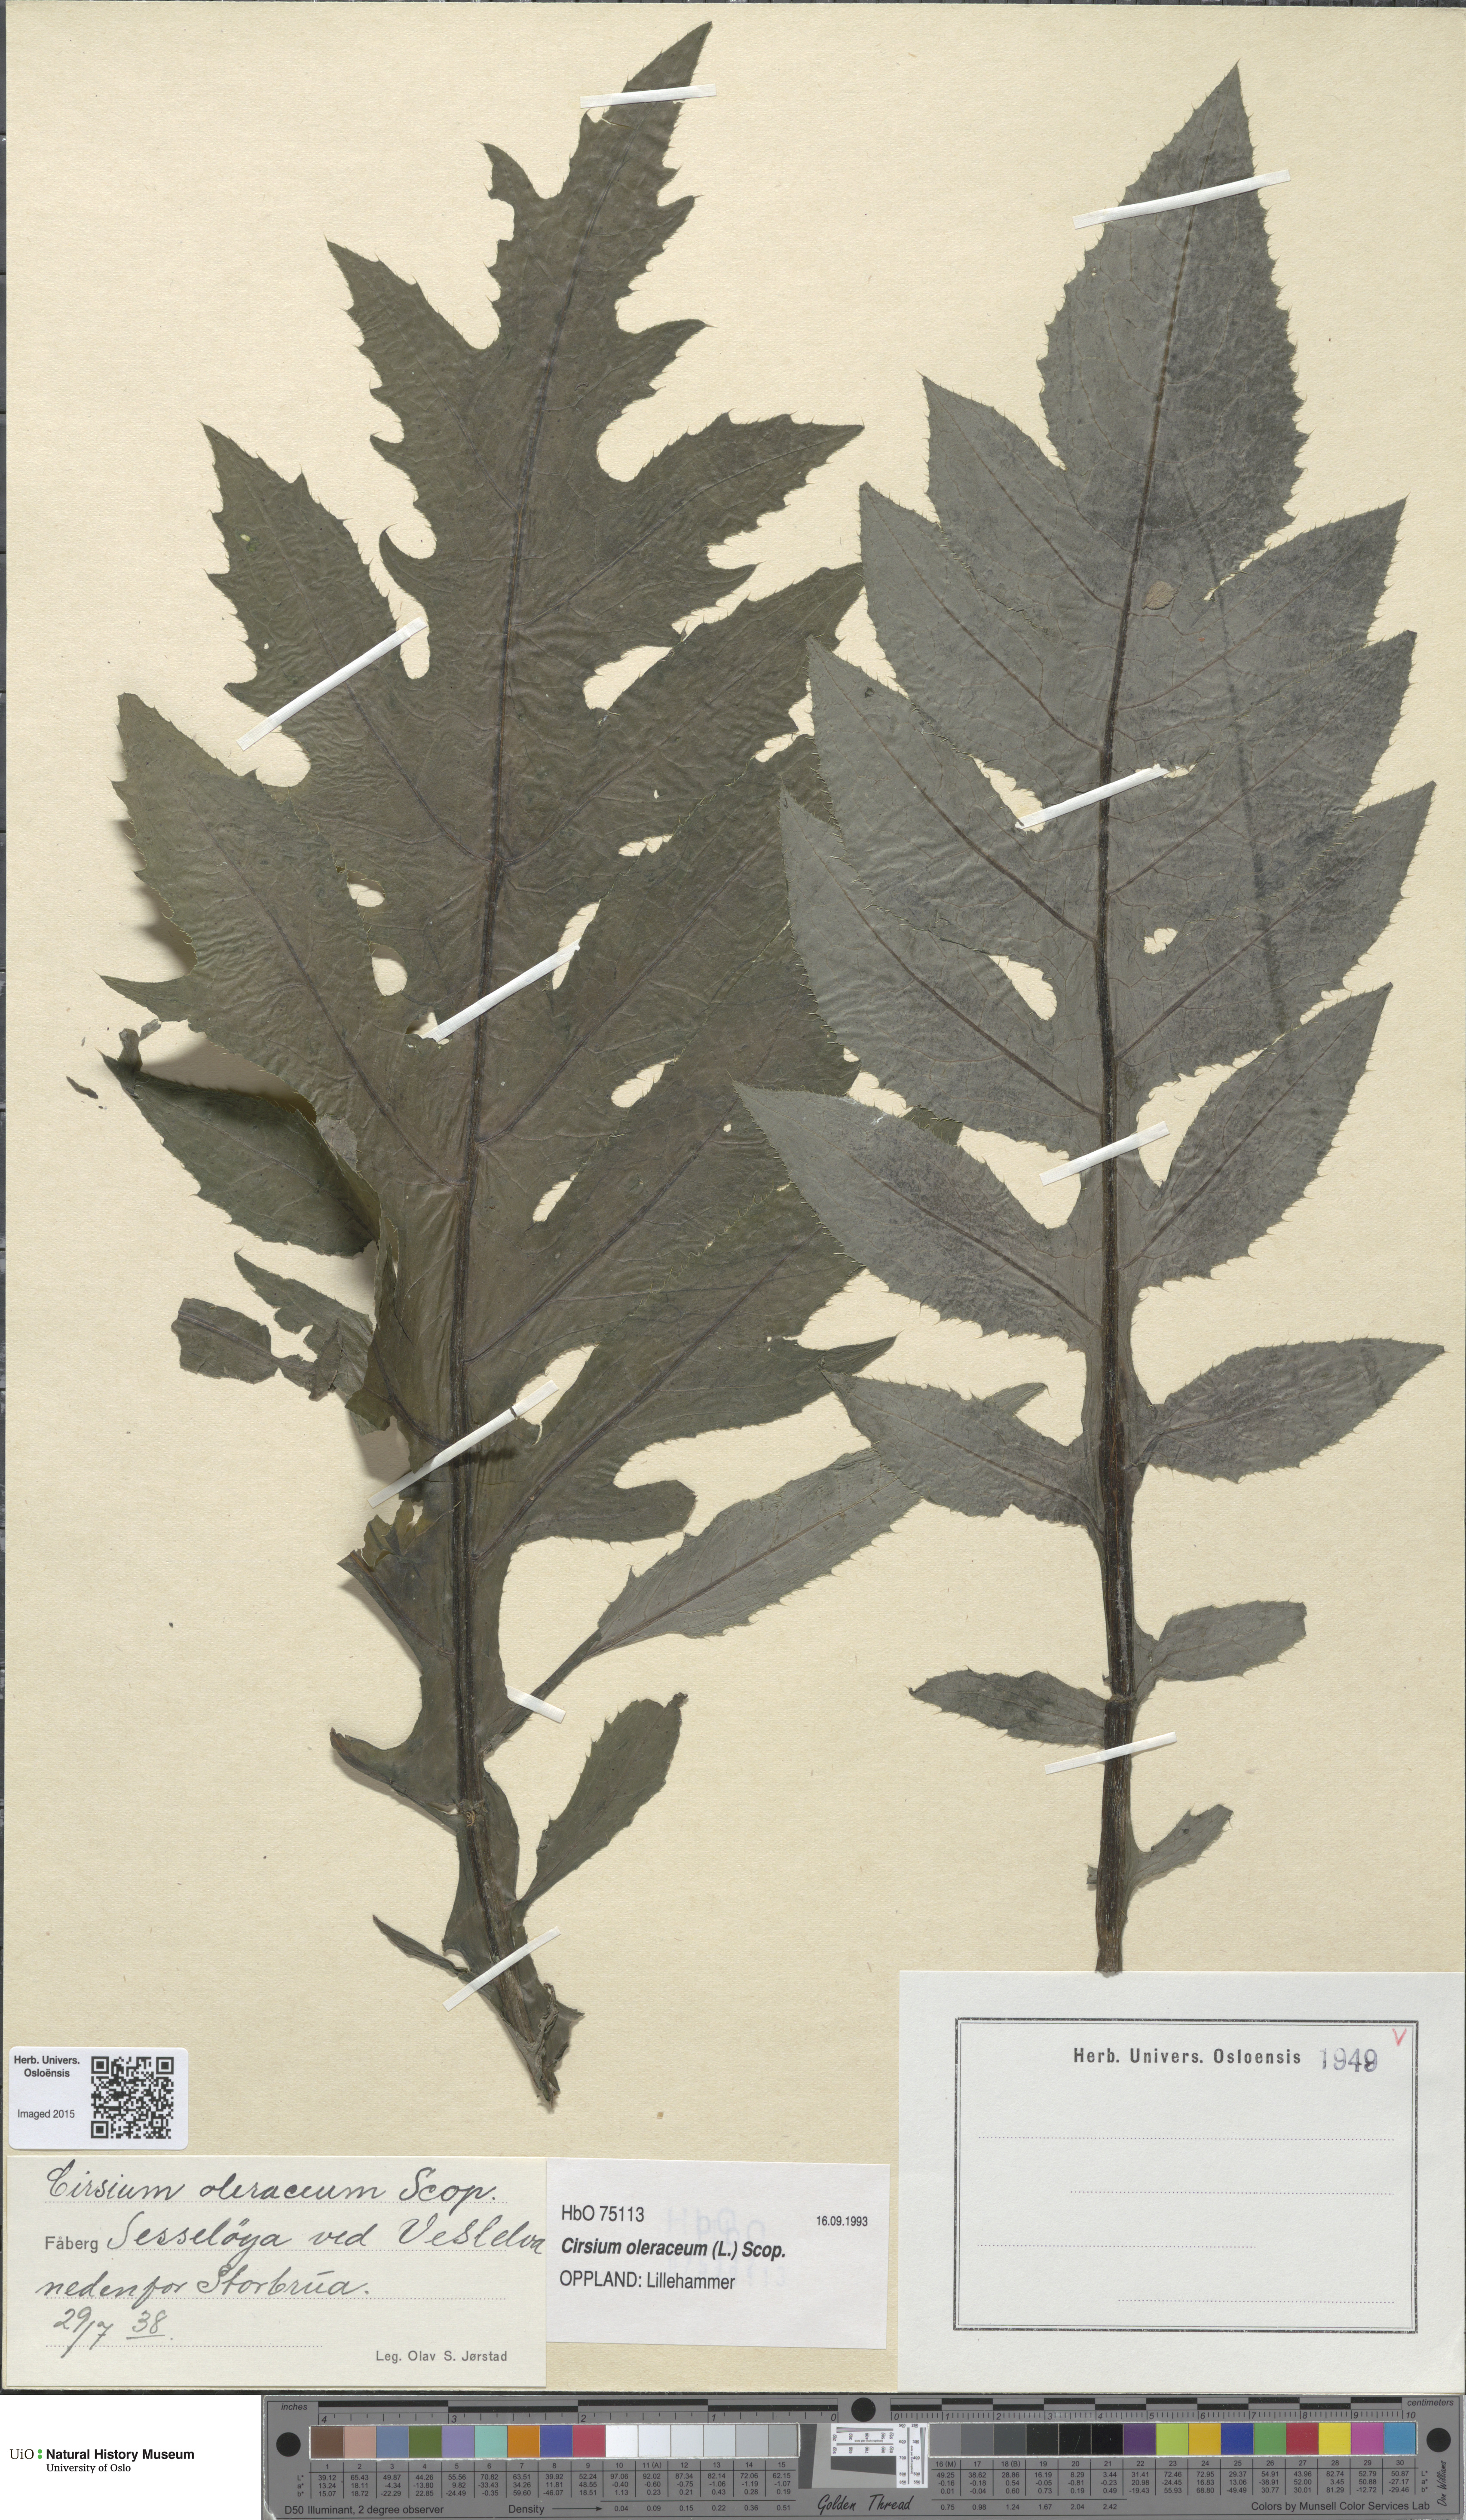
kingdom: Plantae
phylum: Tracheophyta
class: Magnoliopsida
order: Asterales
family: Asteraceae
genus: Cirsium
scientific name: Cirsium oleraceum
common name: Cabbage thistle
